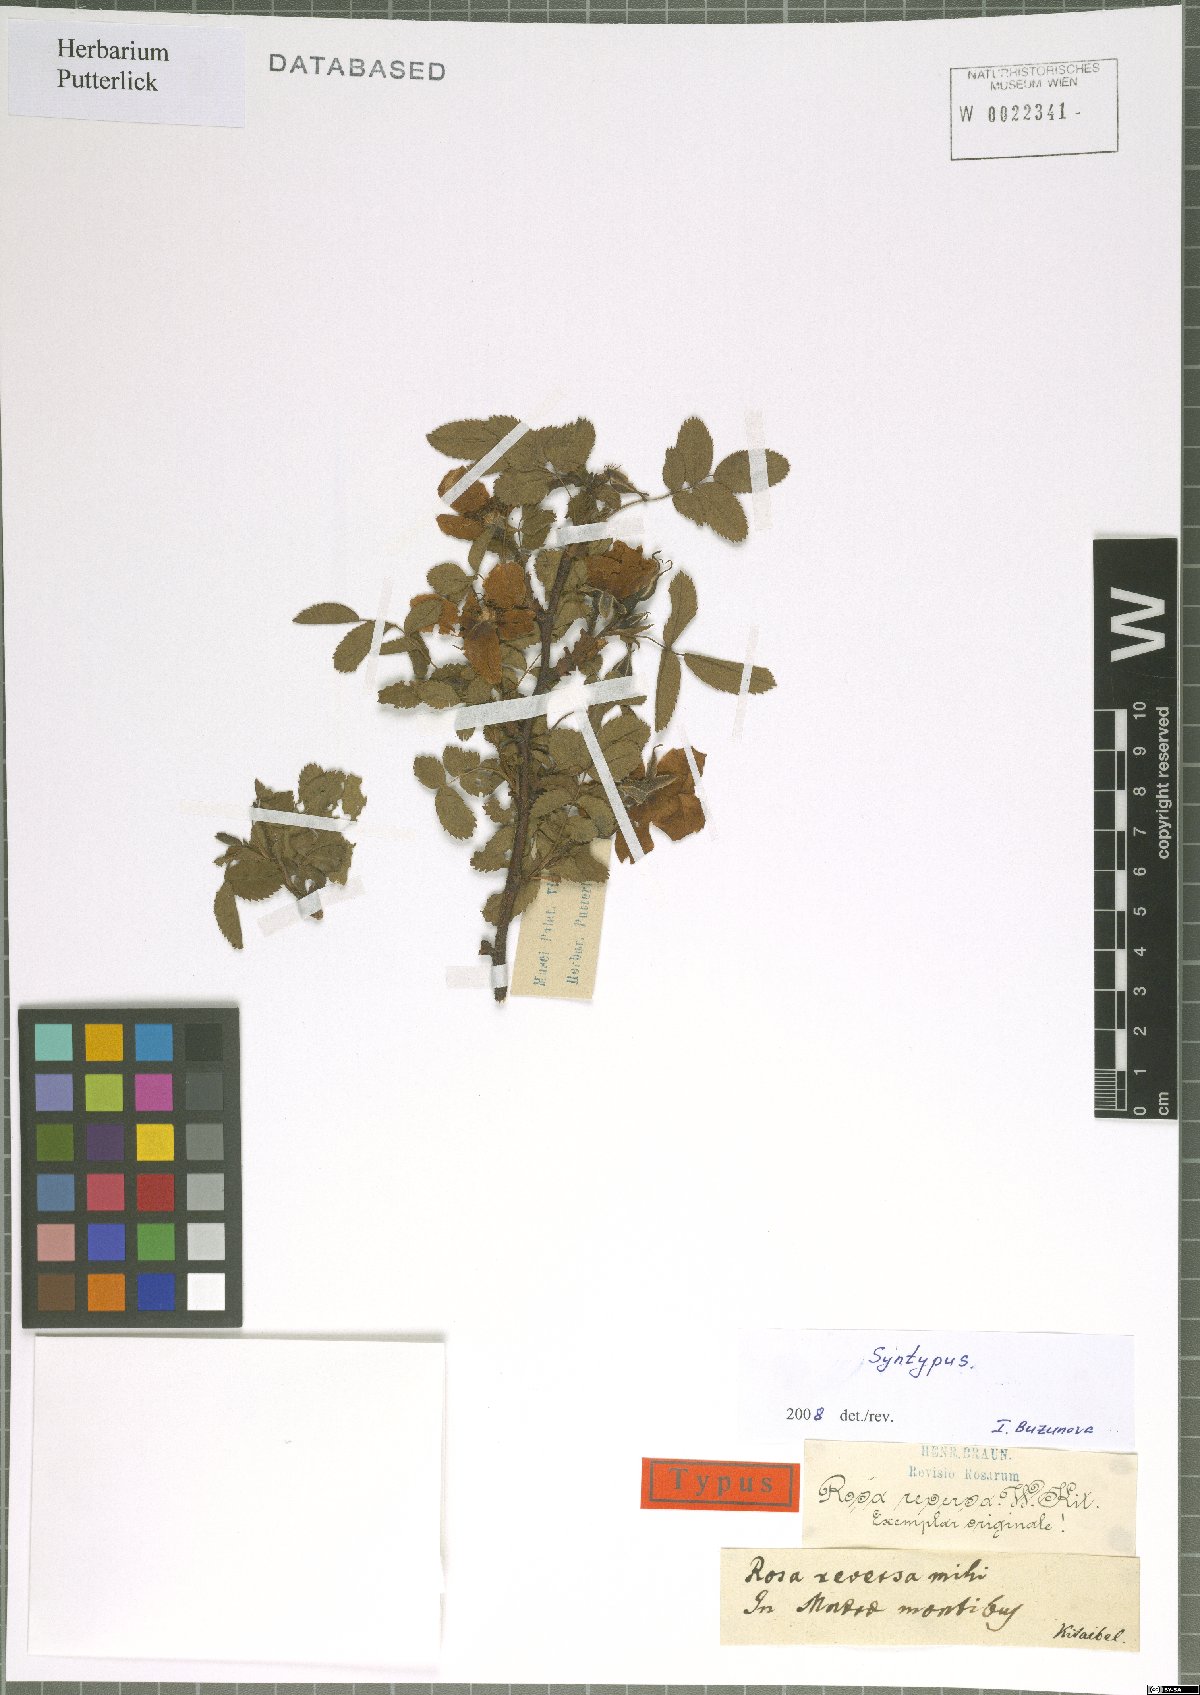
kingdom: Plantae
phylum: Tracheophyta
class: Magnoliopsida
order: Rosales
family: Rosaceae
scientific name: Rosaceae
